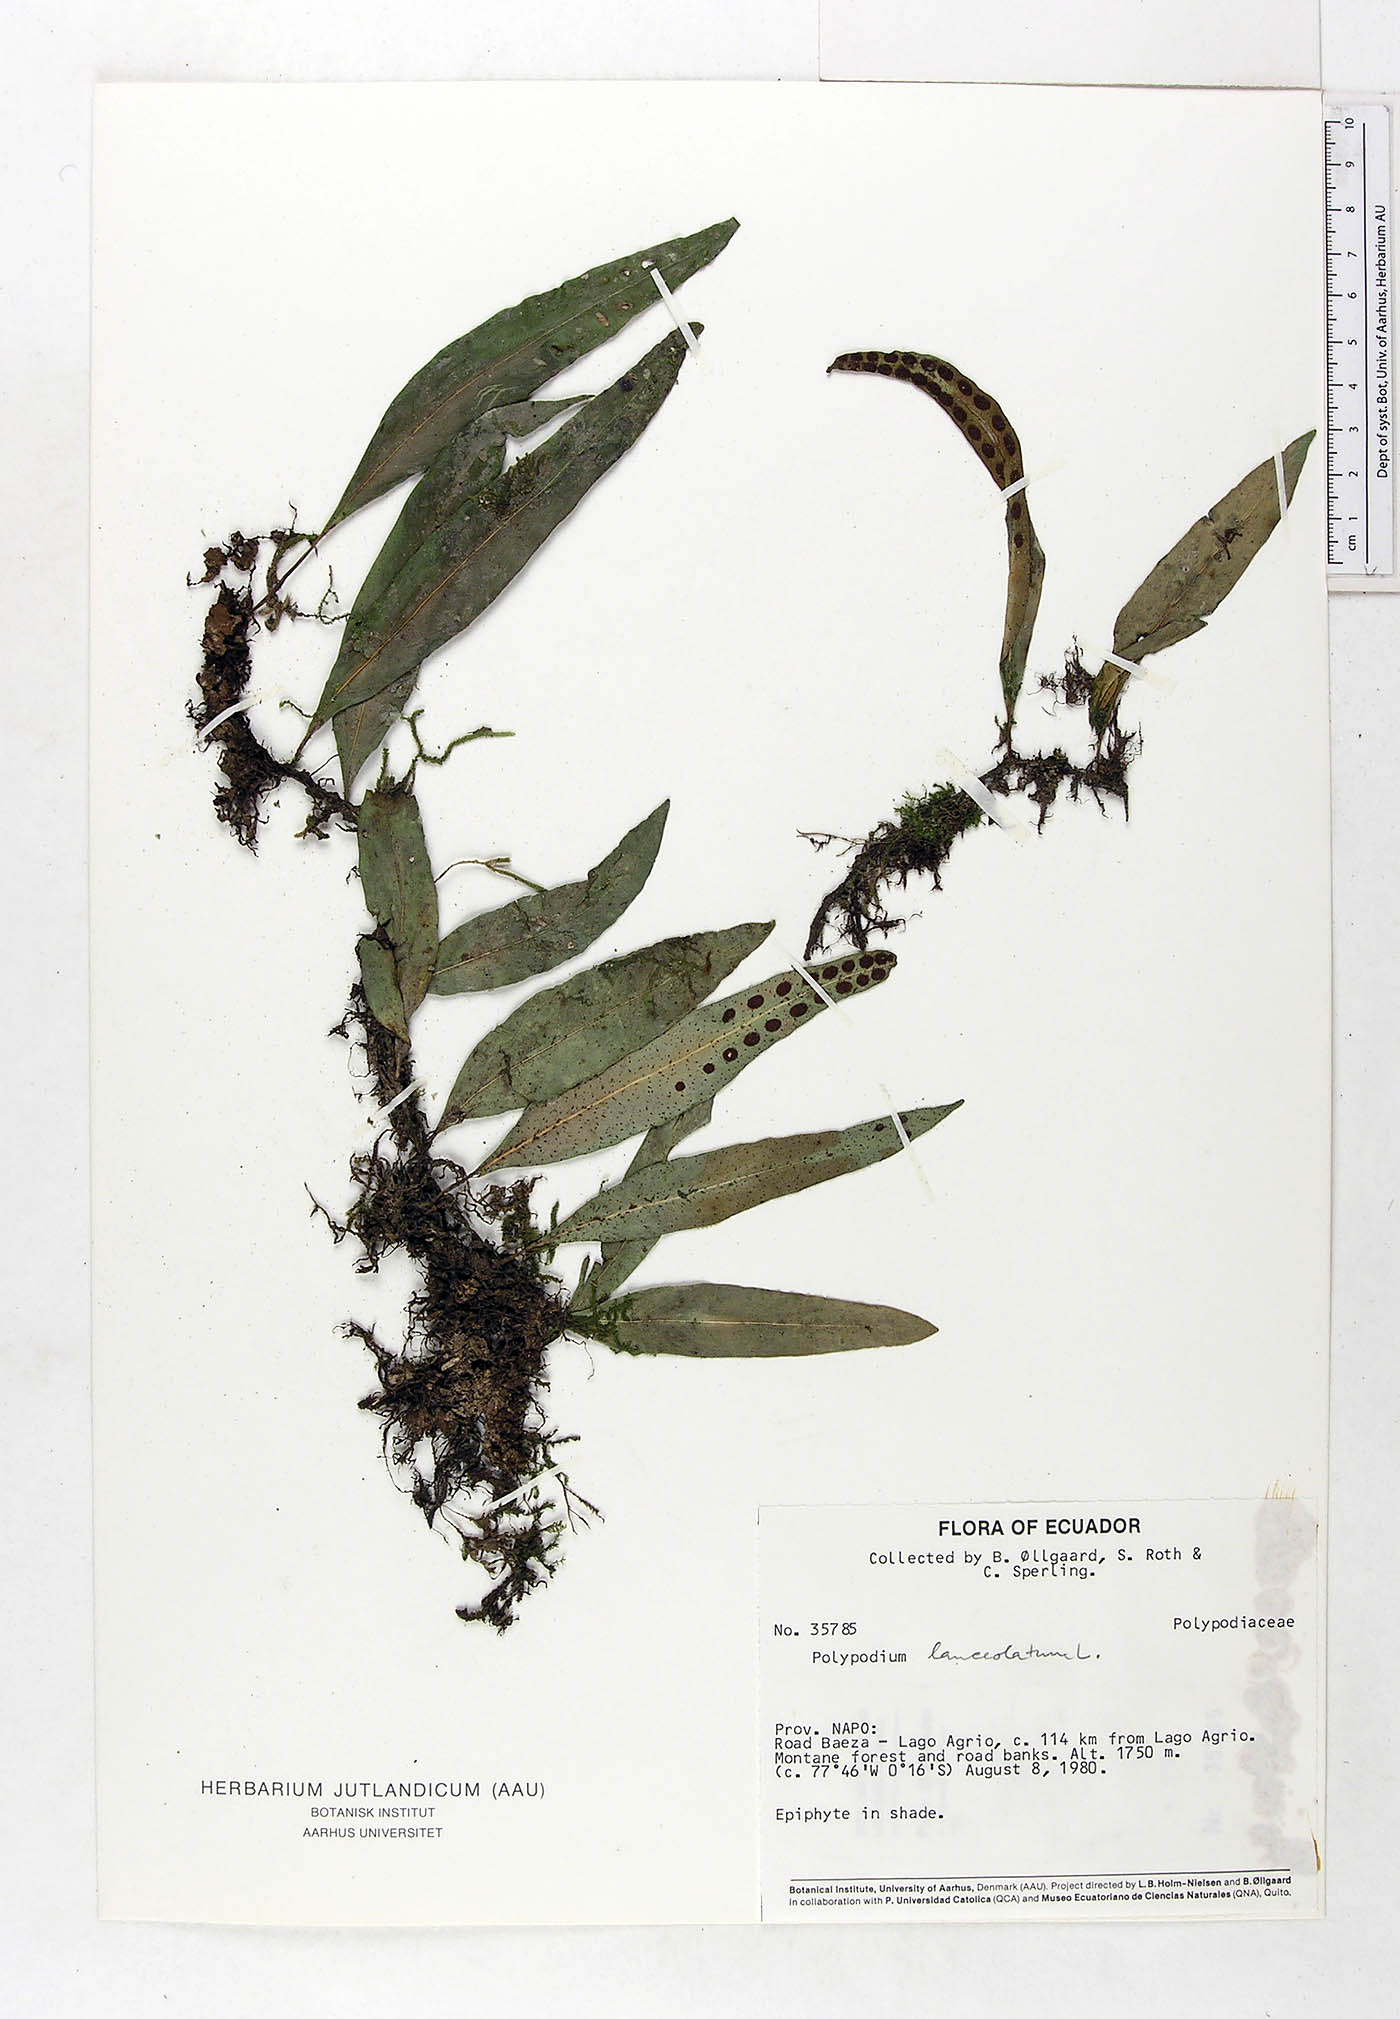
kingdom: Plantae
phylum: Tracheophyta
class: Polypodiopsida
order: Polypodiales
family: Polypodiaceae
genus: Pleopeltis
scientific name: Pleopeltis macrocarpa
